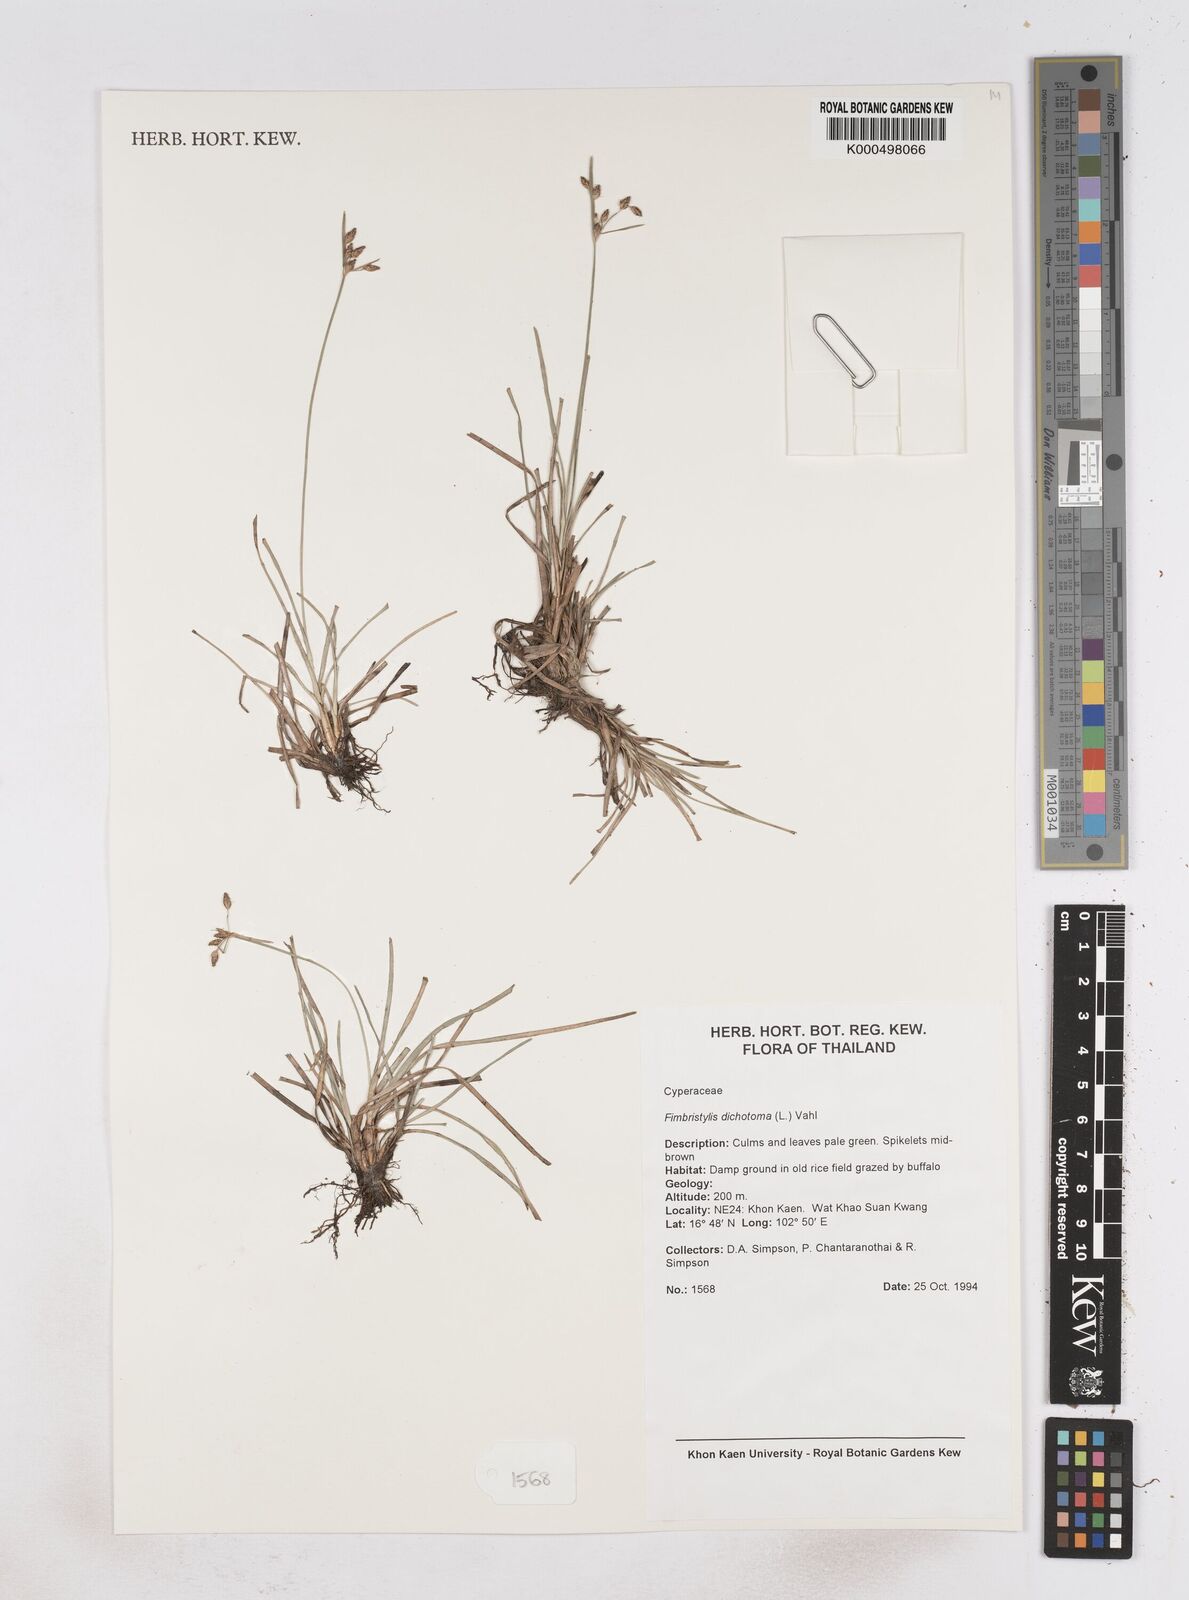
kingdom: Plantae
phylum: Tracheophyta
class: Liliopsida
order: Poales
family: Cyperaceae
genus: Fimbristylis
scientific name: Fimbristylis dichotoma
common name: Forked fimbry
